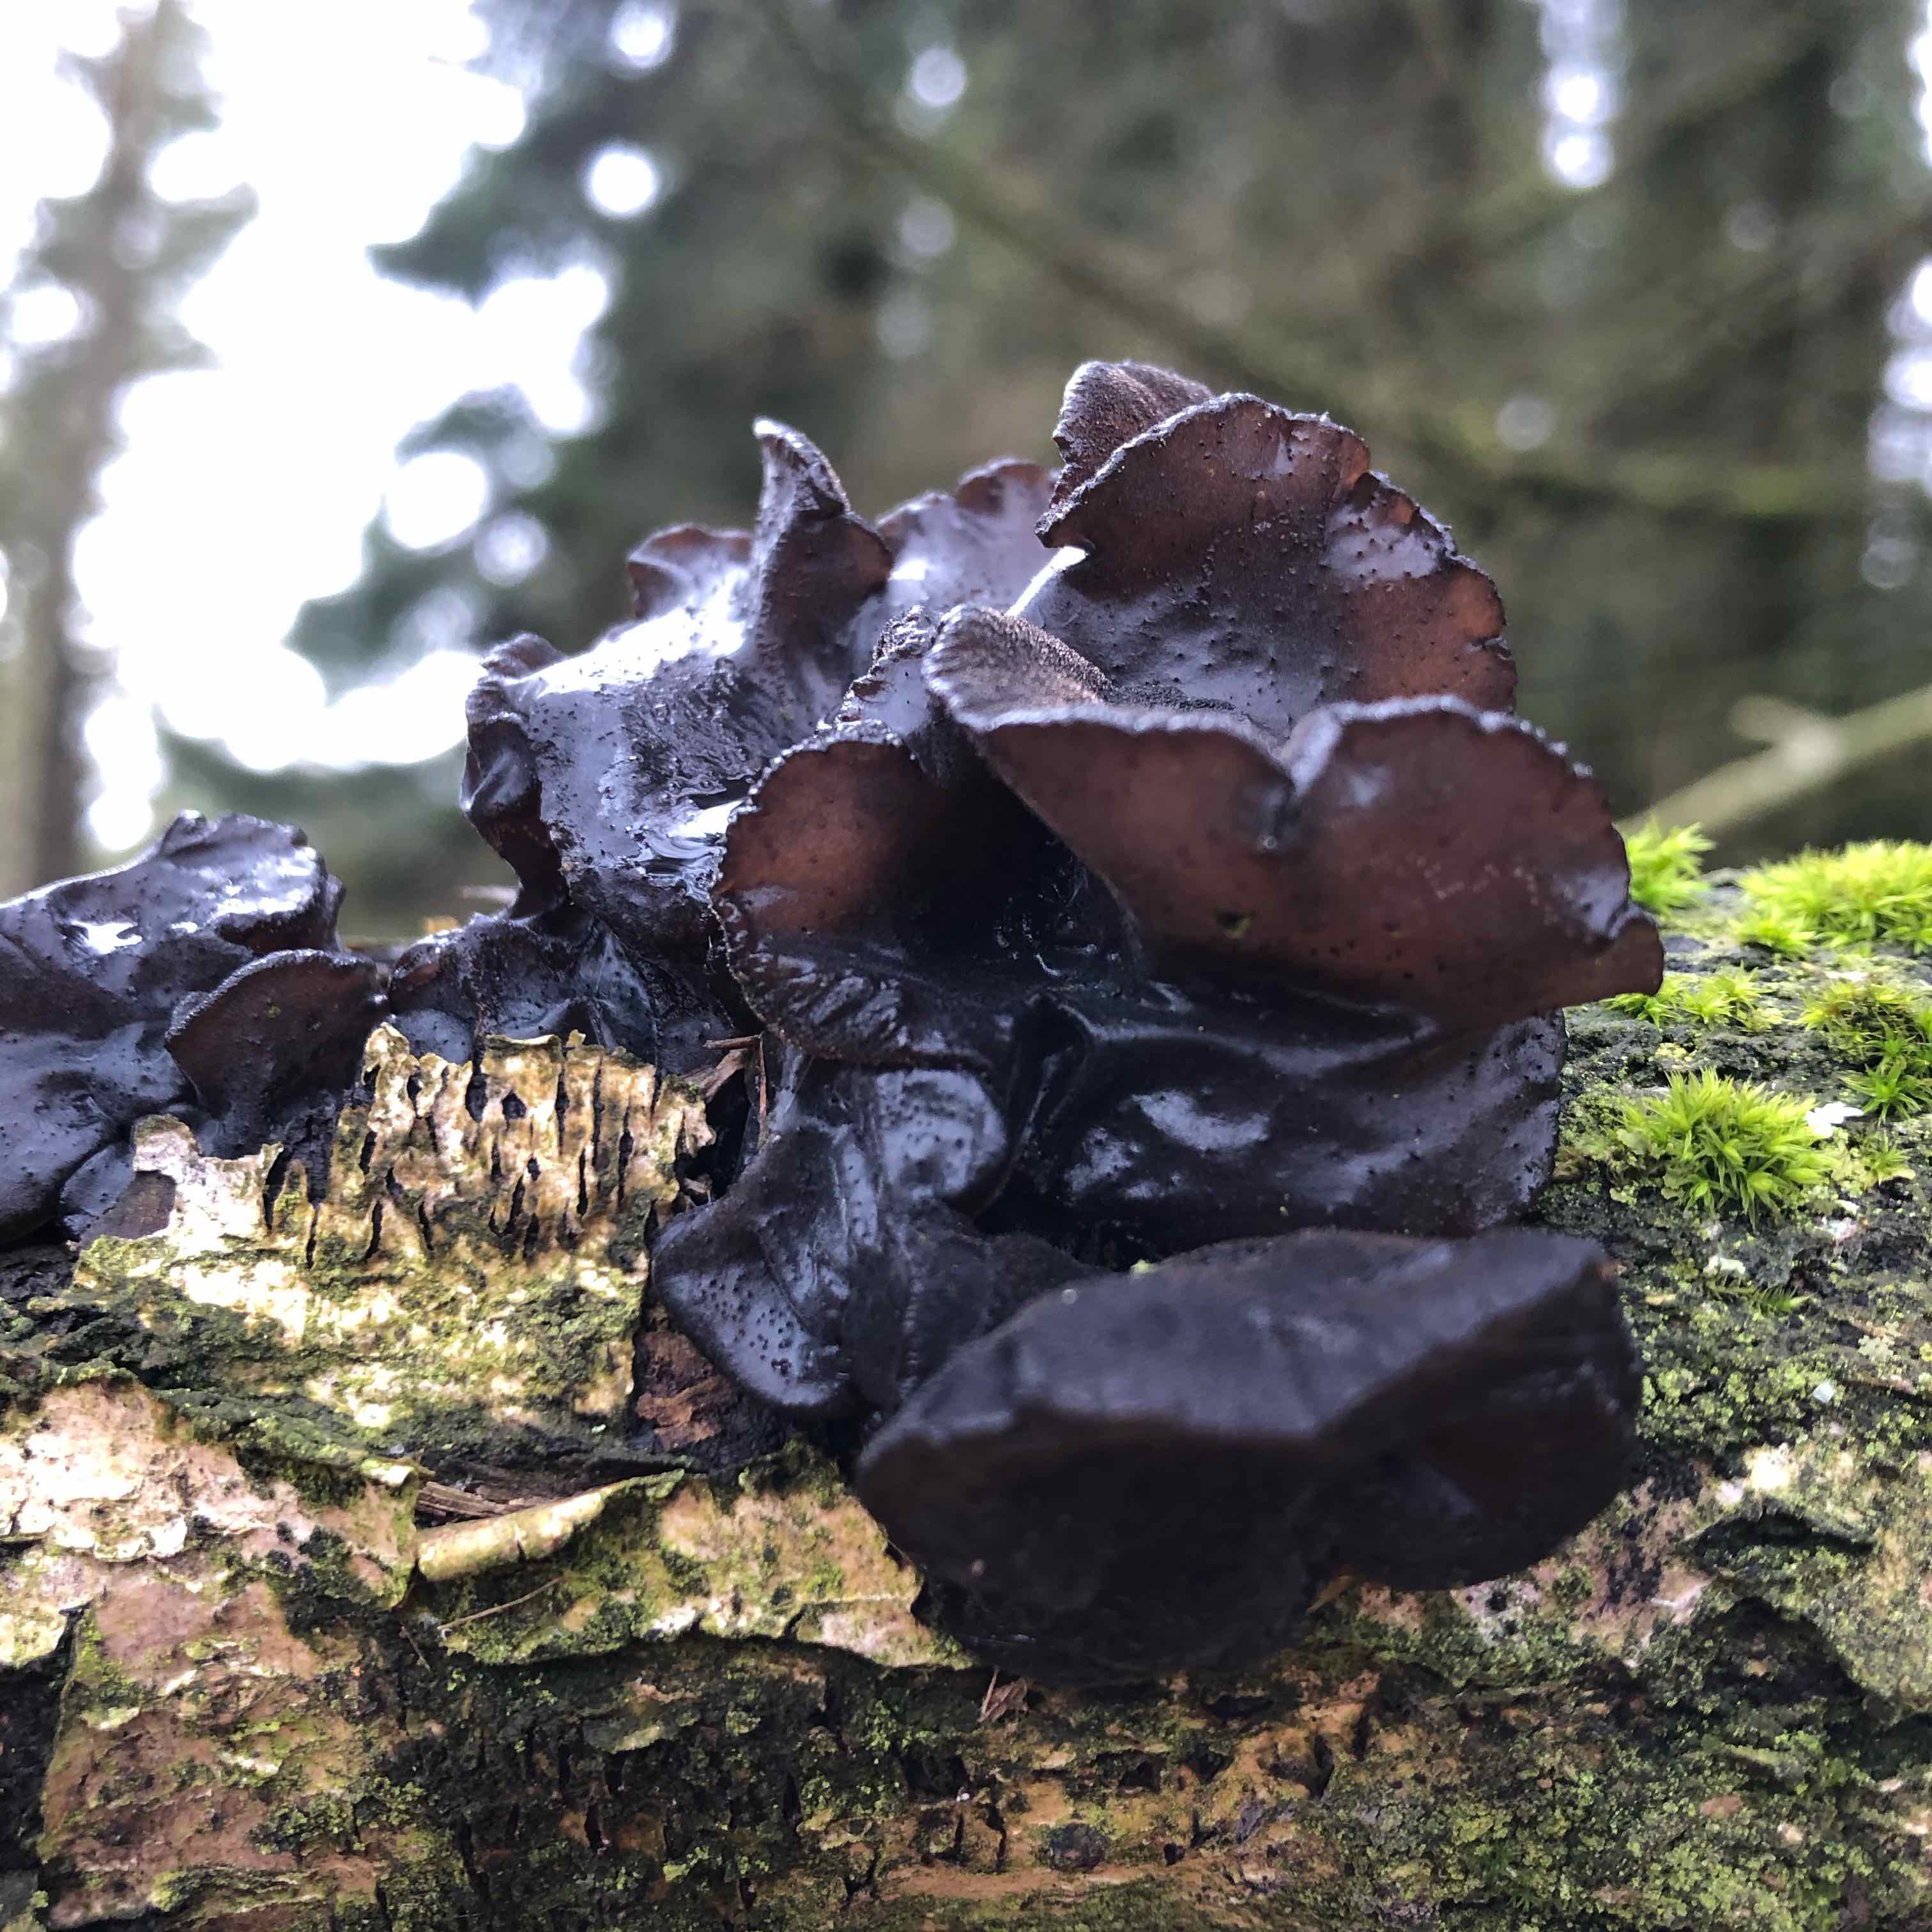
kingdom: Fungi
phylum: Basidiomycota
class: Agaricomycetes
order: Auriculariales
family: Auriculariaceae
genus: Exidia
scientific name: Exidia glandulosa
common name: ege-bævretop
